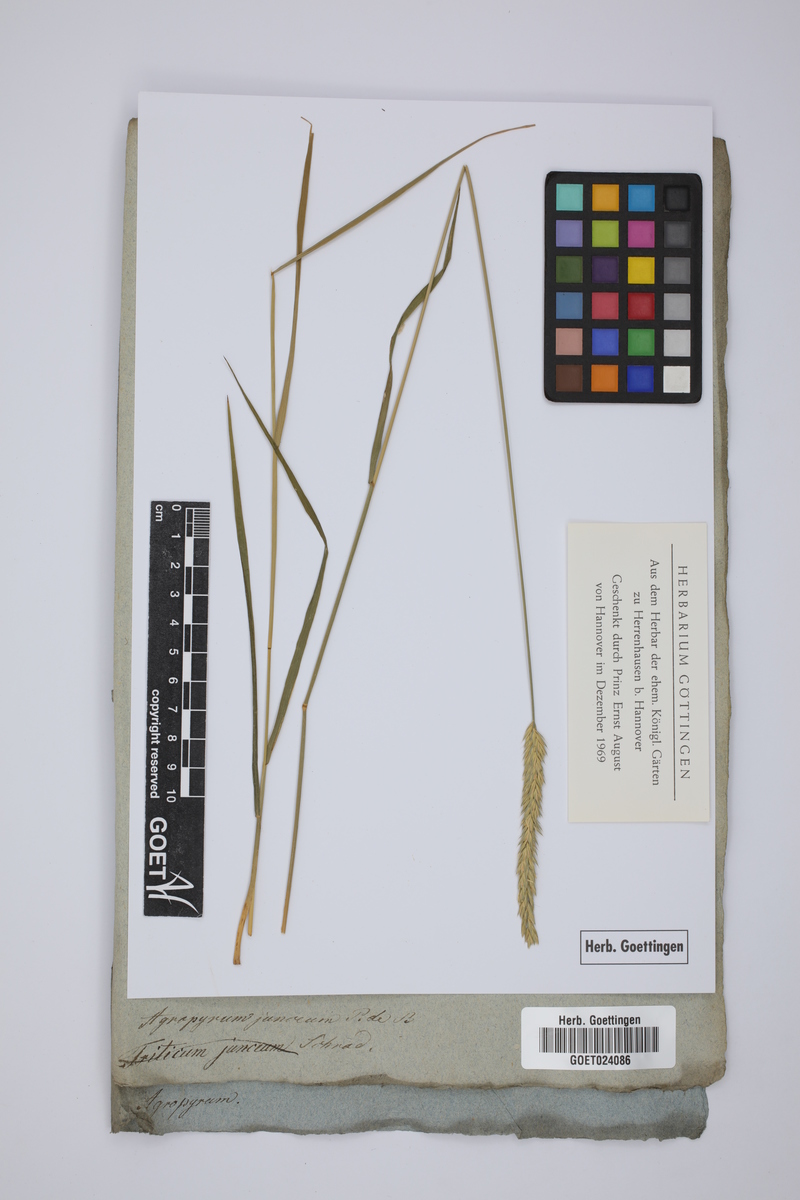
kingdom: Plantae
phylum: Tracheophyta
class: Liliopsida
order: Poales
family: Poaceae
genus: Thinopyrum
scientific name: Thinopyrum junceum
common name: Russian wheatgrass
